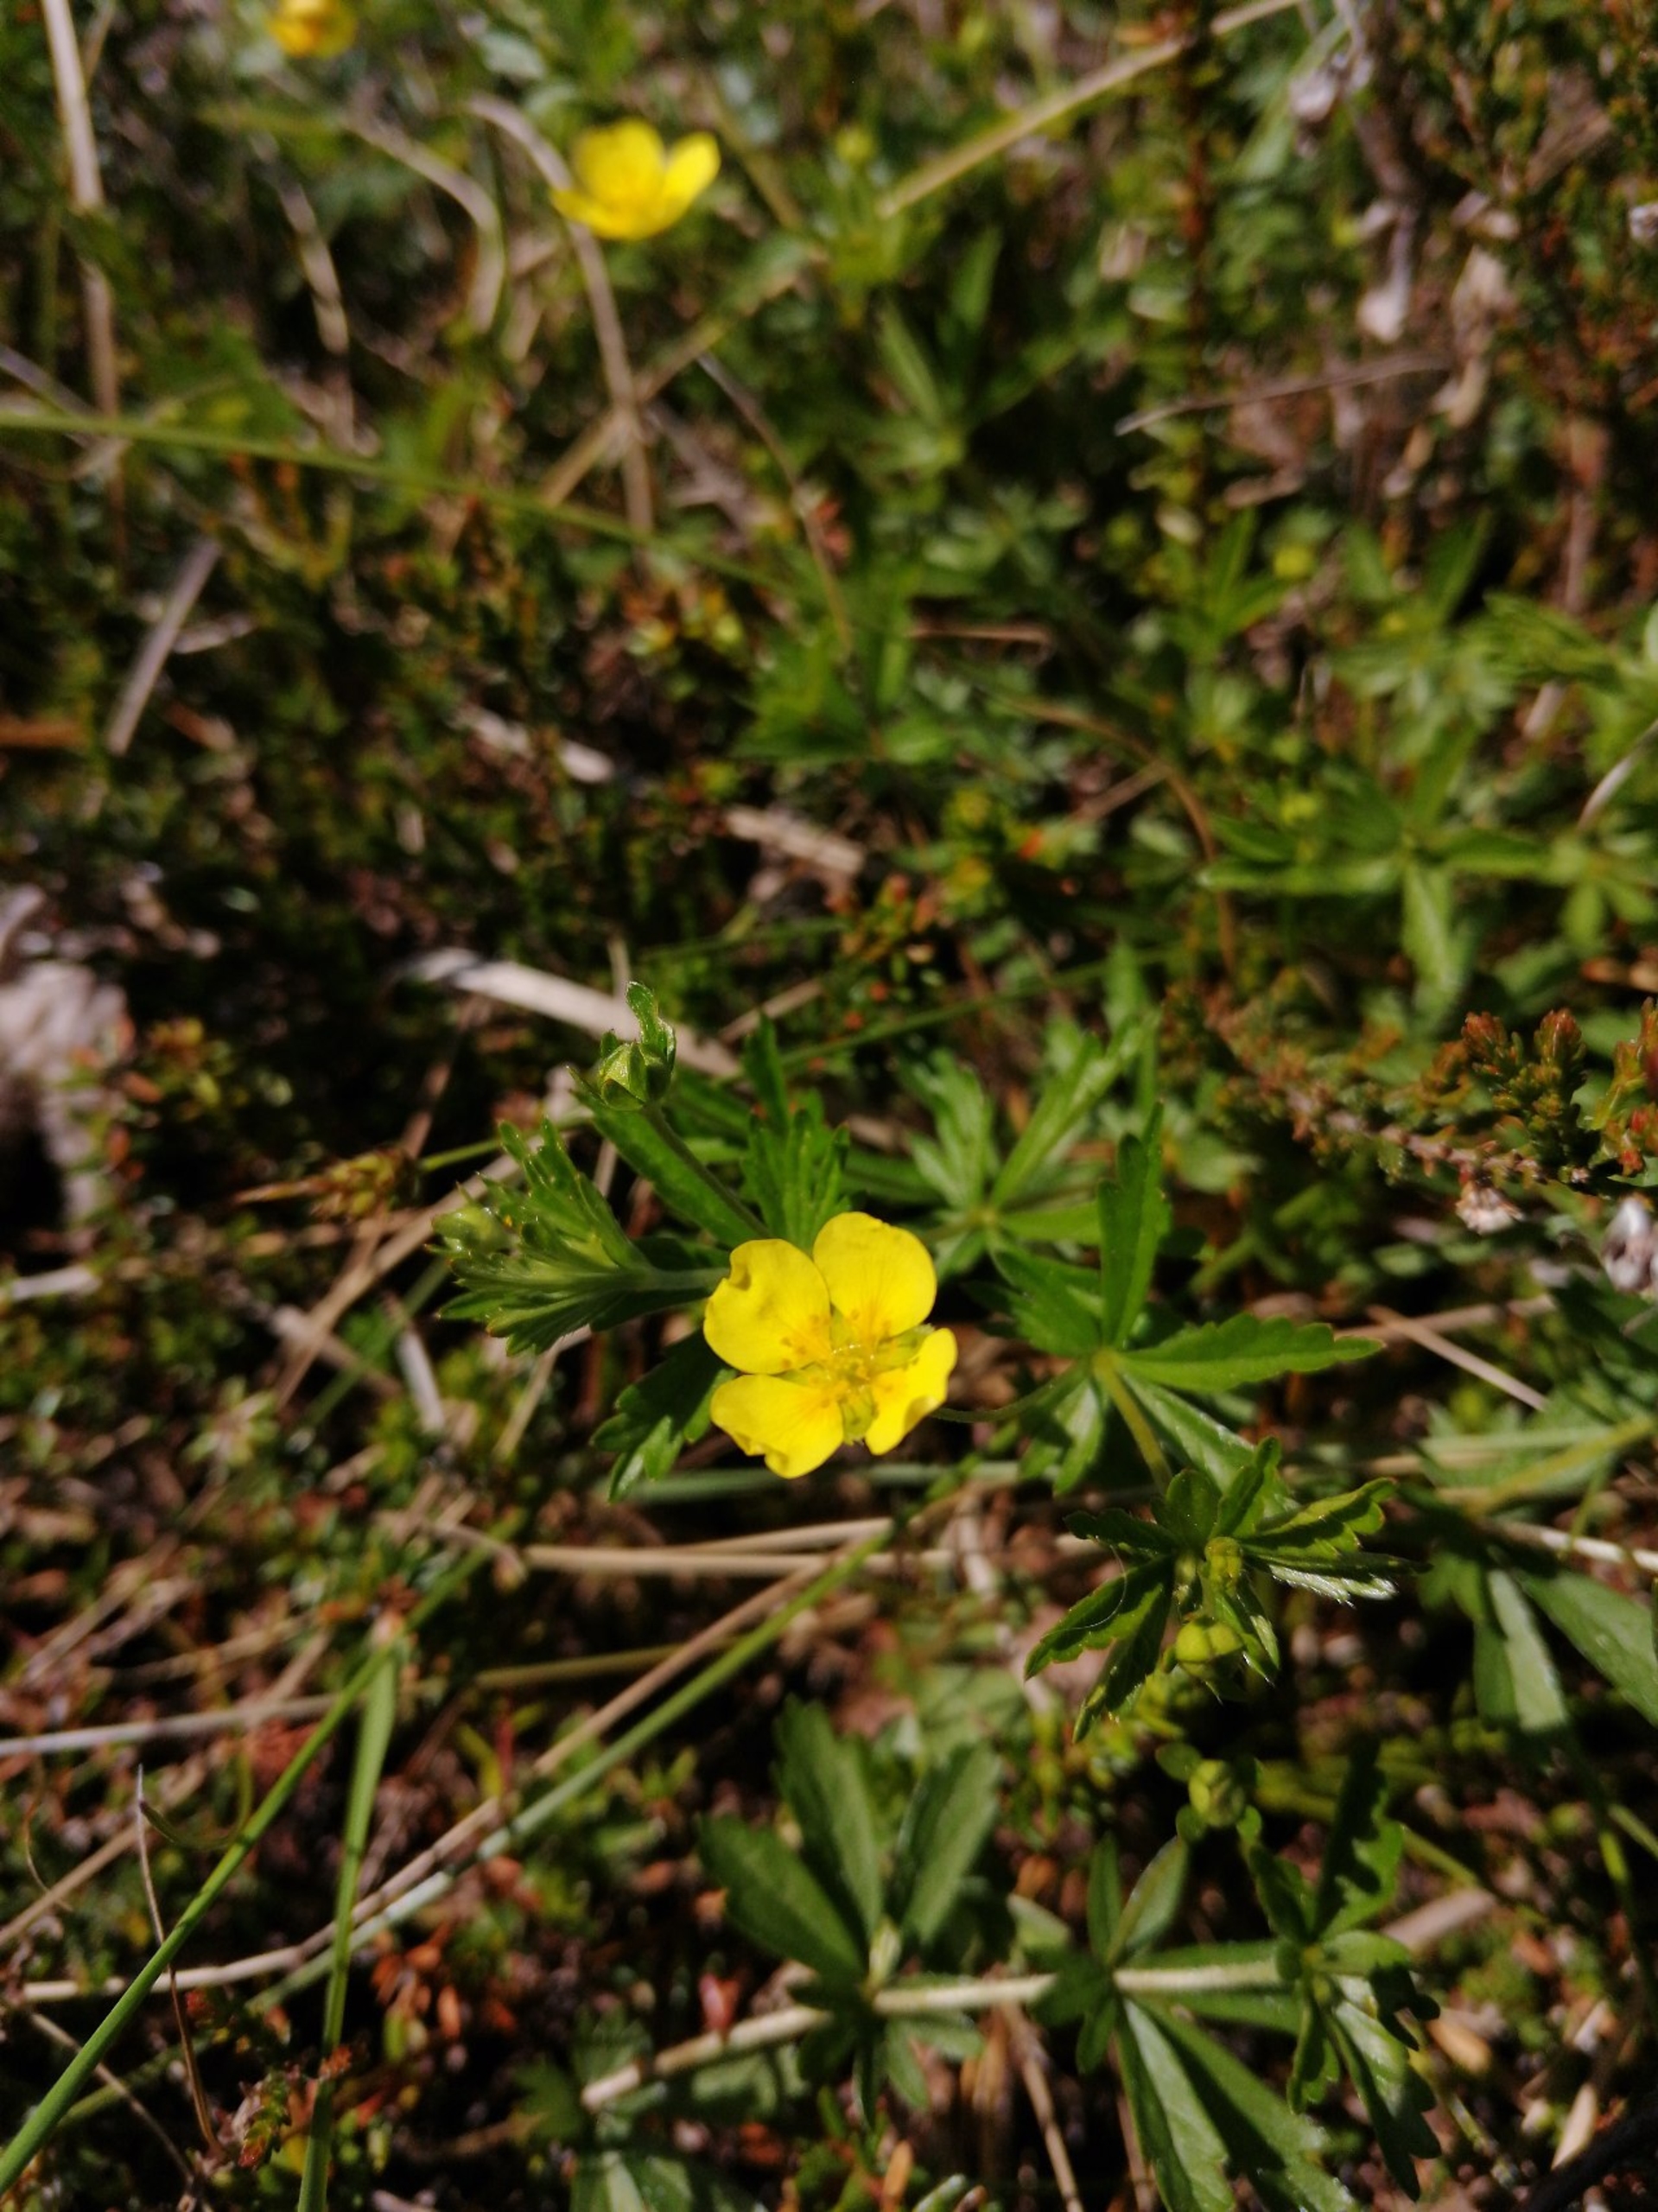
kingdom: Plantae
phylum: Tracheophyta
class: Magnoliopsida
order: Rosales
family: Rosaceae
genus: Potentilla
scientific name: Potentilla erecta
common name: Tormentil
